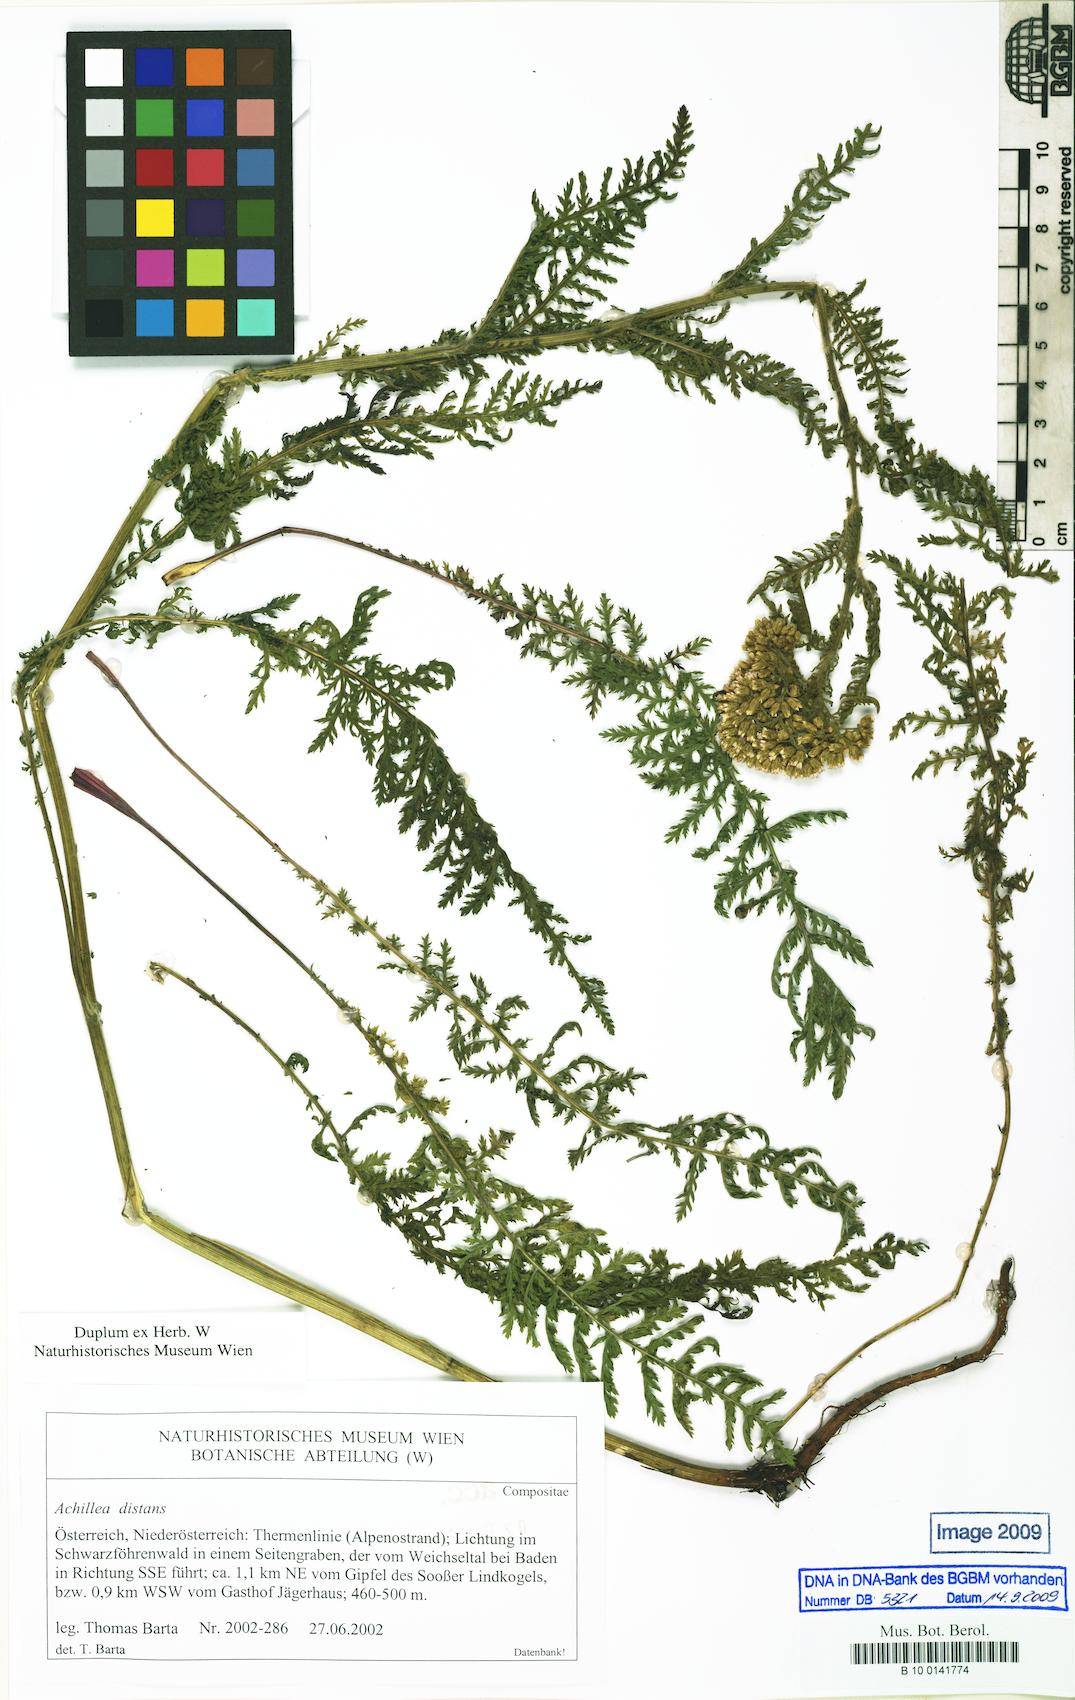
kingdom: Plantae
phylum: Tracheophyta
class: Magnoliopsida
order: Asterales
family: Asteraceae
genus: Achillea
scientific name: Achillea distans
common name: Tall yarrow
